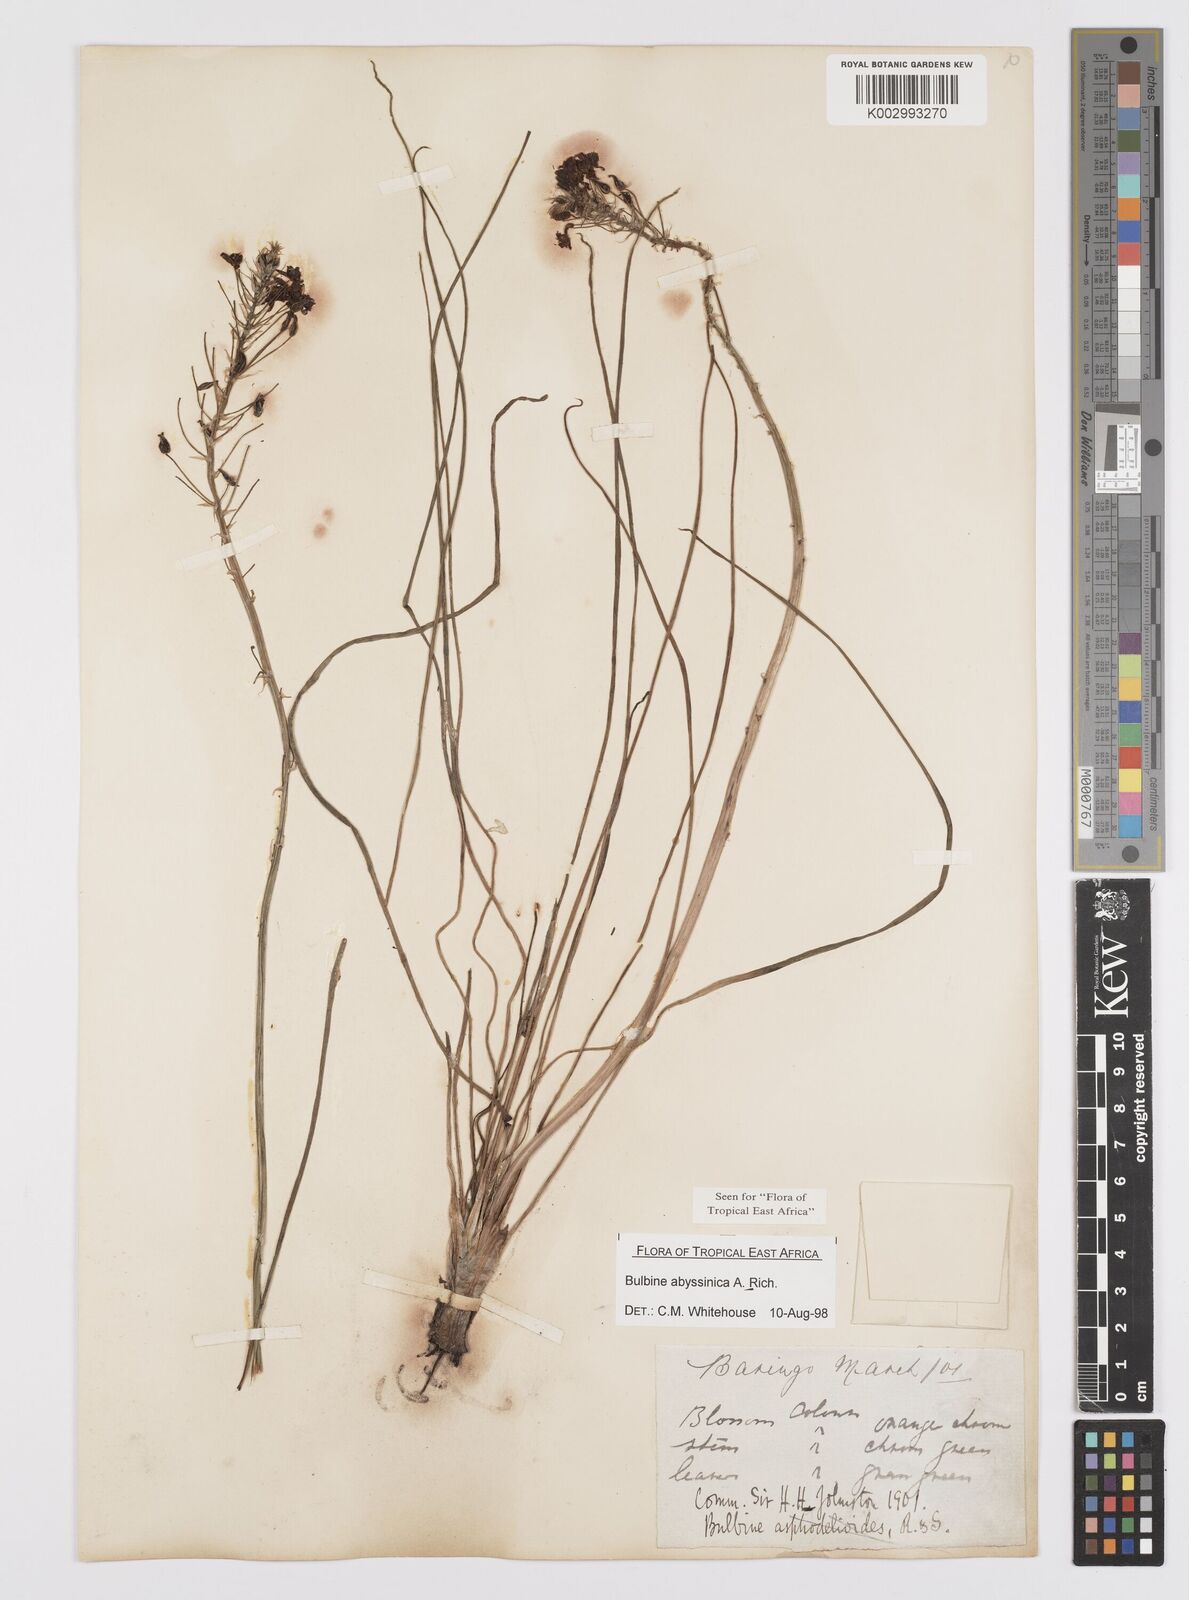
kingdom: Plantae
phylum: Tracheophyta
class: Liliopsida
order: Asparagales
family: Asphodelaceae
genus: Bulbine
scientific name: Bulbine abyssinica
